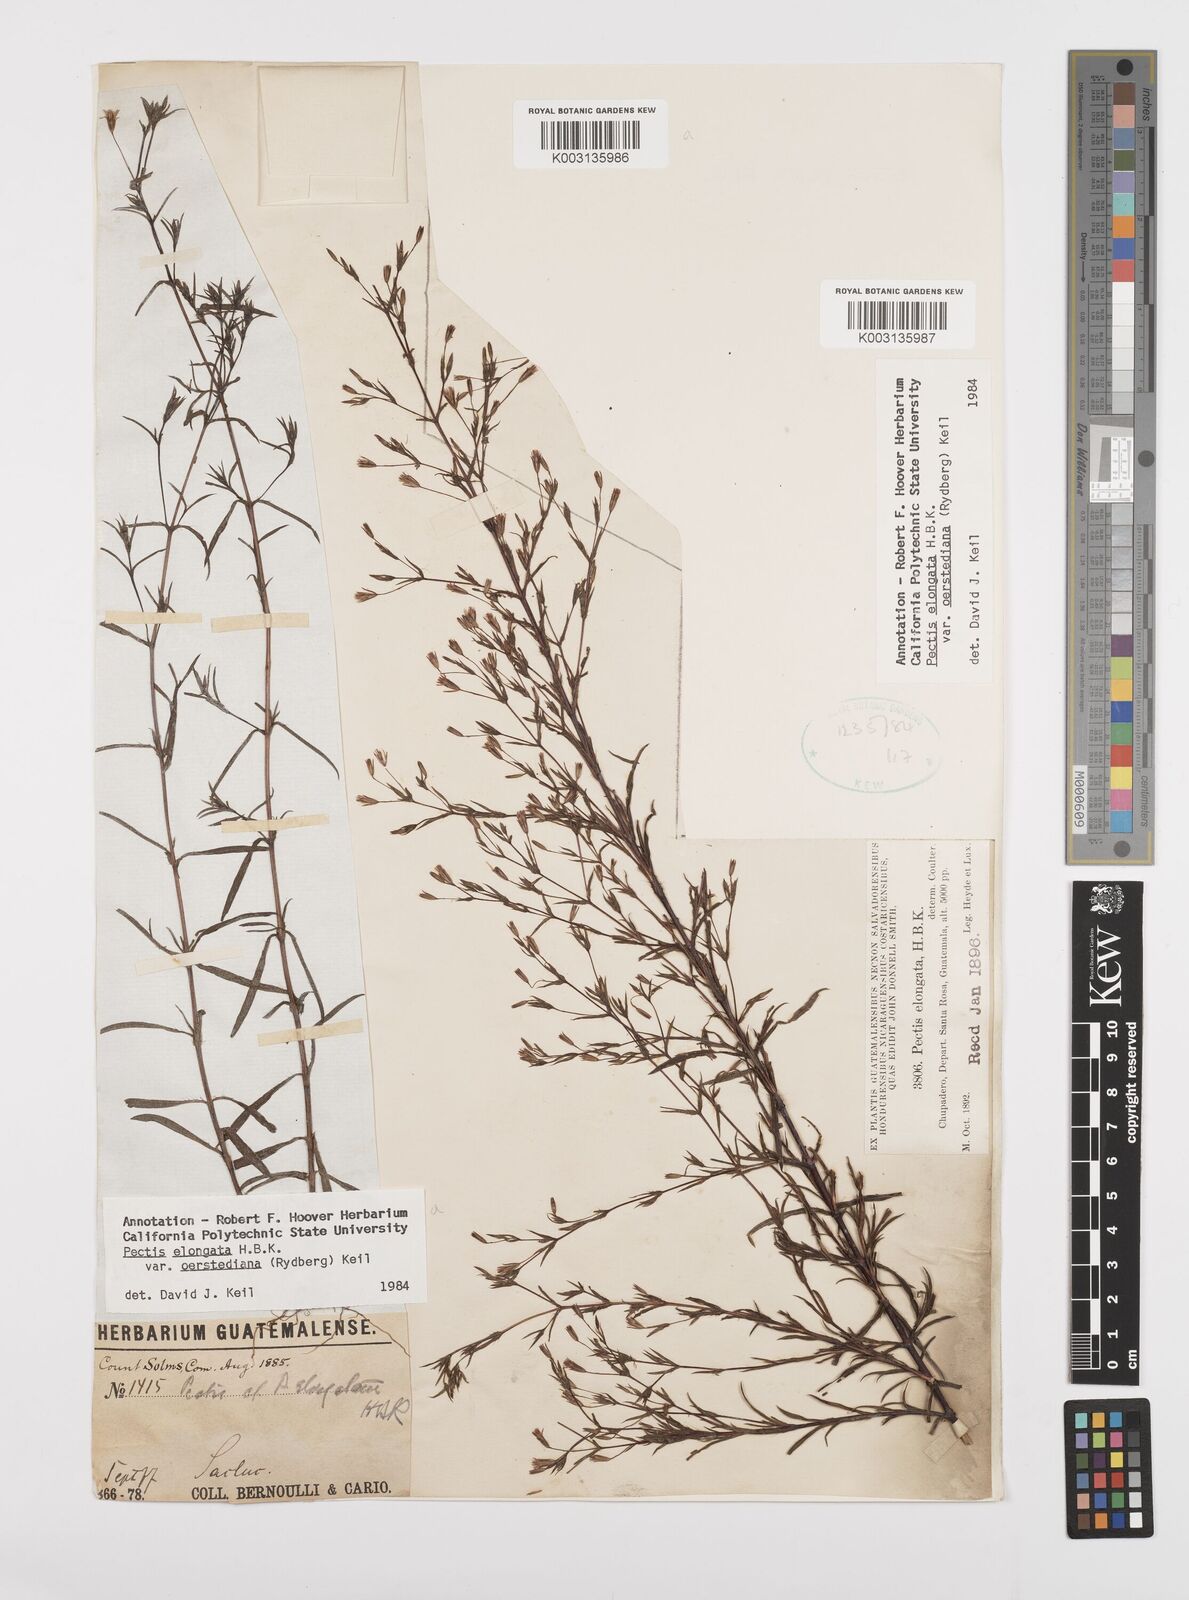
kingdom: Plantae
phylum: Tracheophyta
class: Magnoliopsida
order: Asterales
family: Asteraceae
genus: Pectis
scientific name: Pectis elongata
